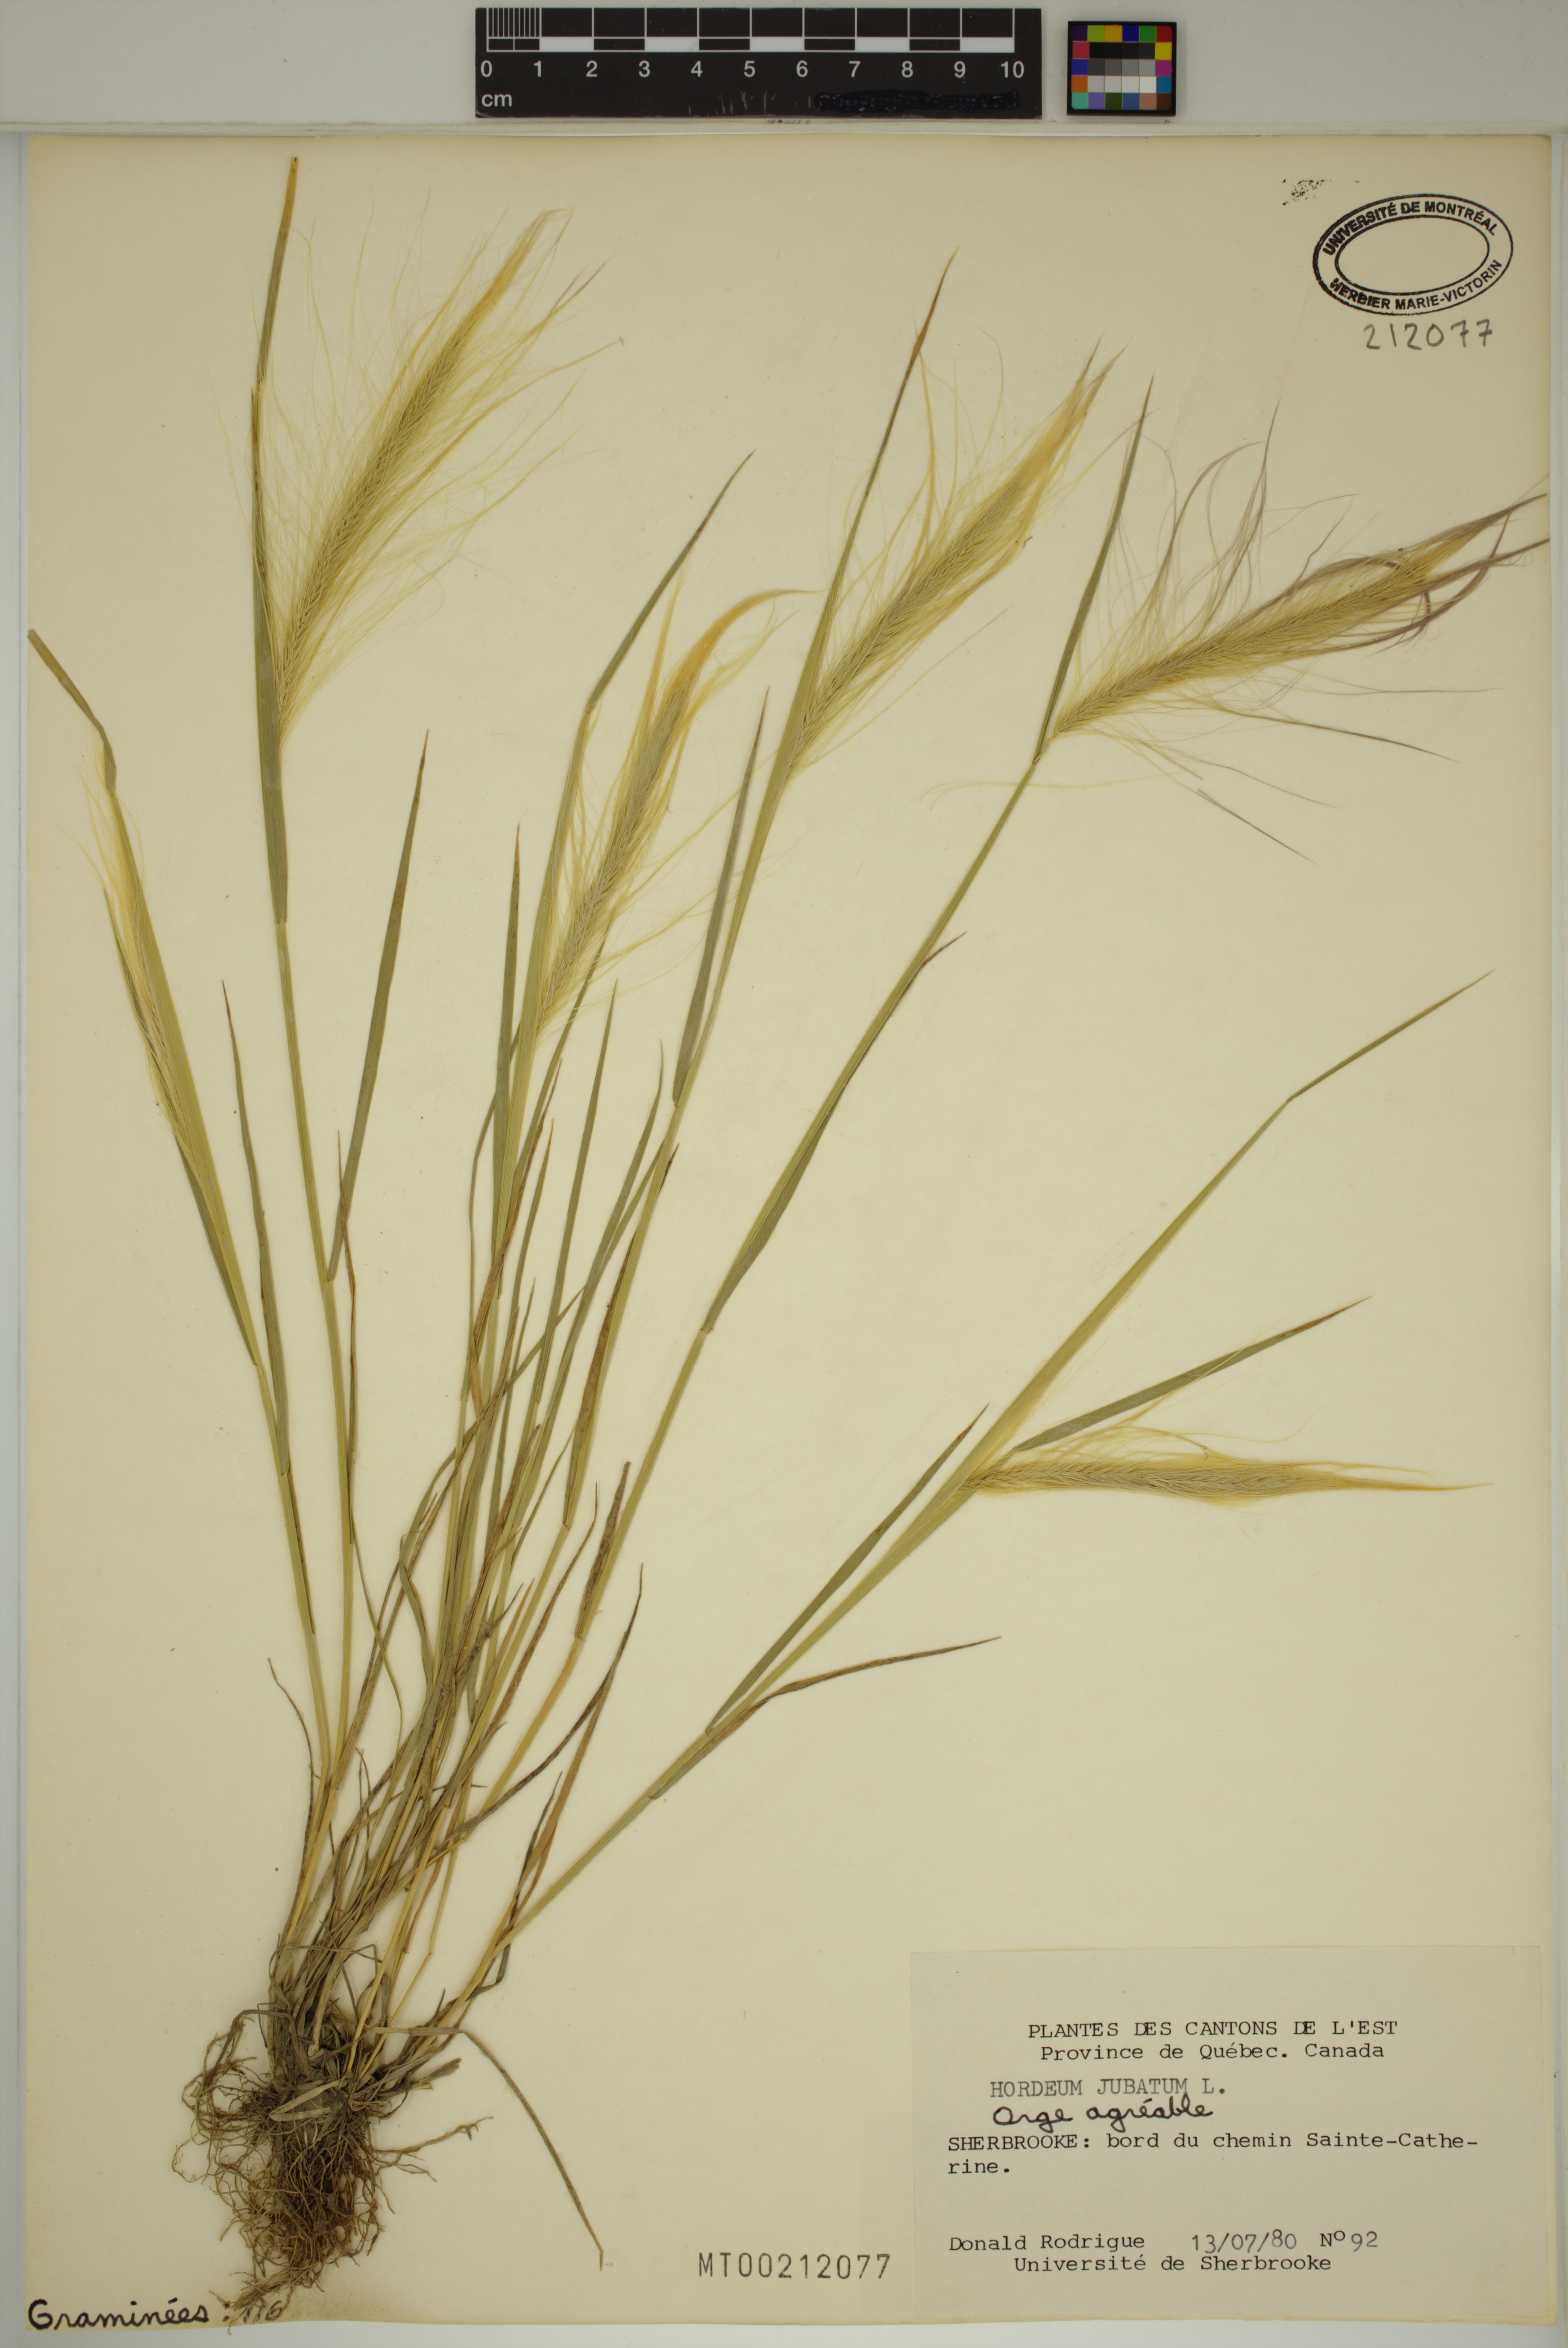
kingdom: Plantae
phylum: Tracheophyta
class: Liliopsida
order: Poales
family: Poaceae
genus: Hordeum
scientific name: Hordeum jubatum
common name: Foxtail barley
